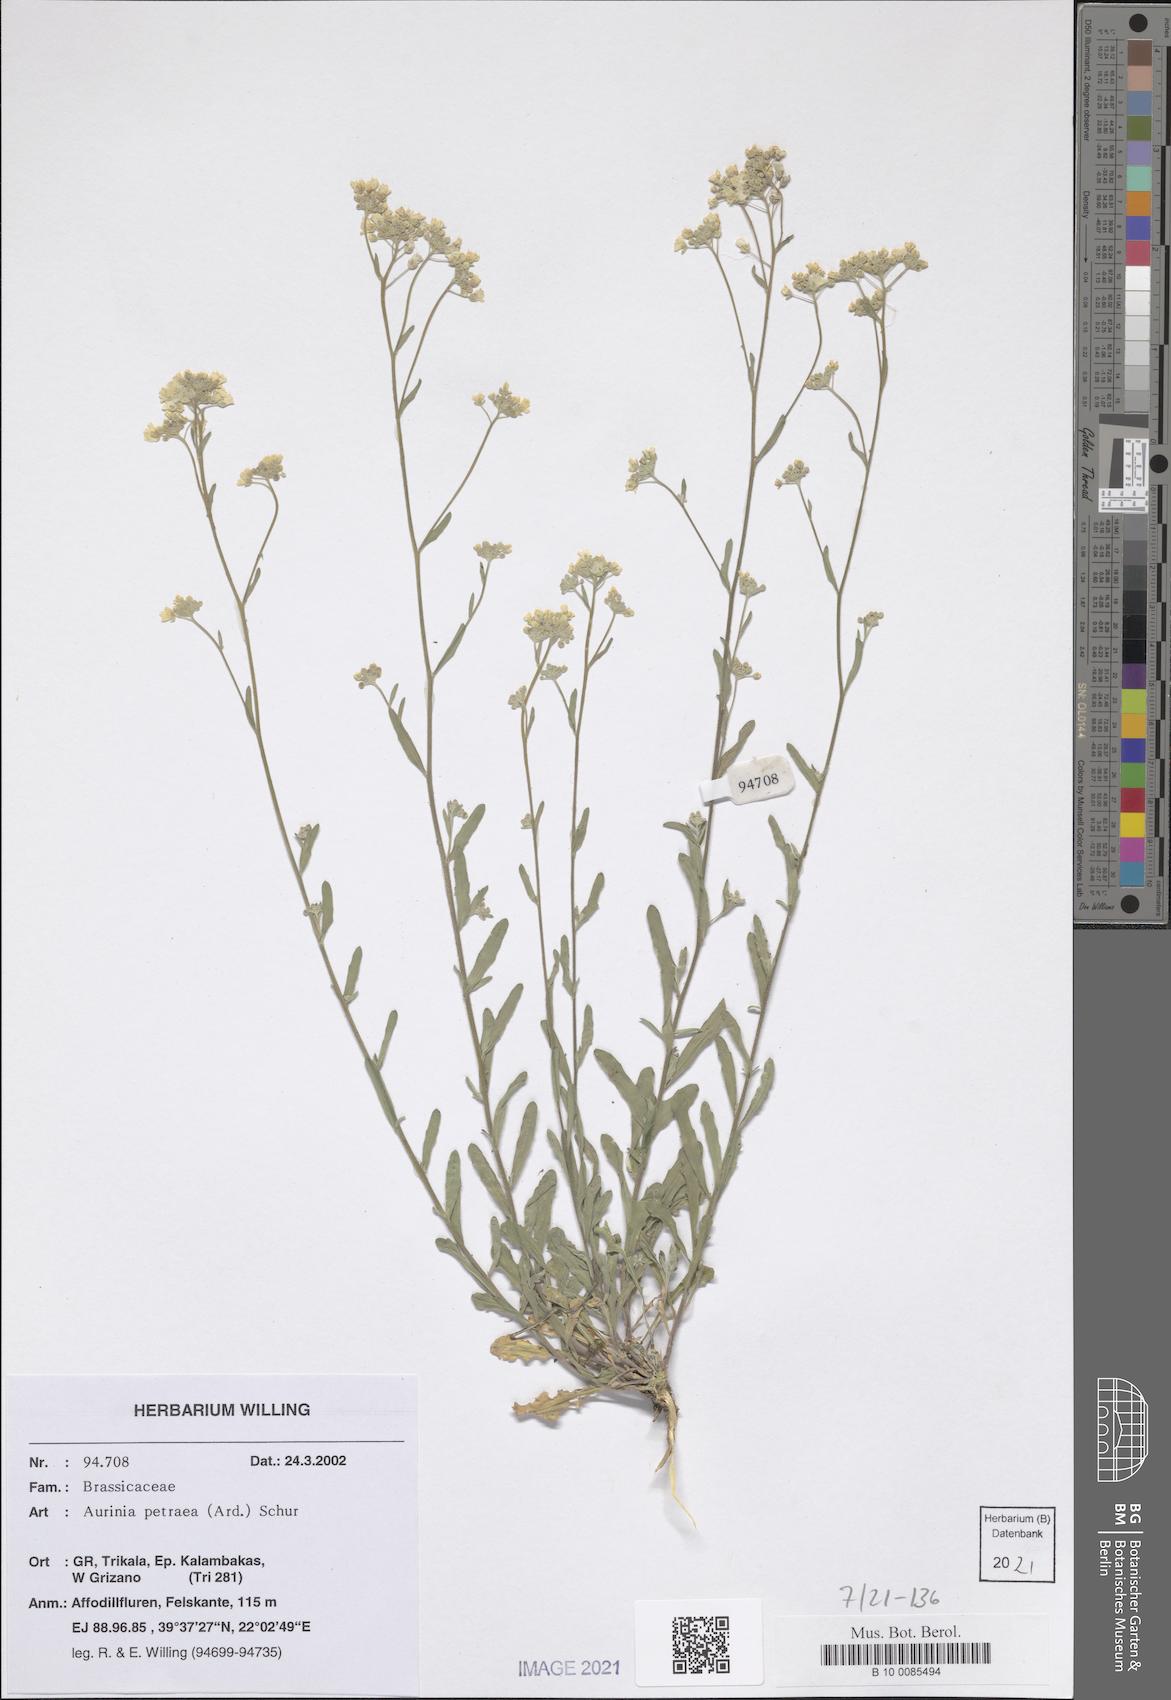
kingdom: Plantae
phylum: Tracheophyta
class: Magnoliopsida
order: Brassicales
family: Brassicaceae
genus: Aurinia
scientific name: Aurinia petraea
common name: Goldentuft
